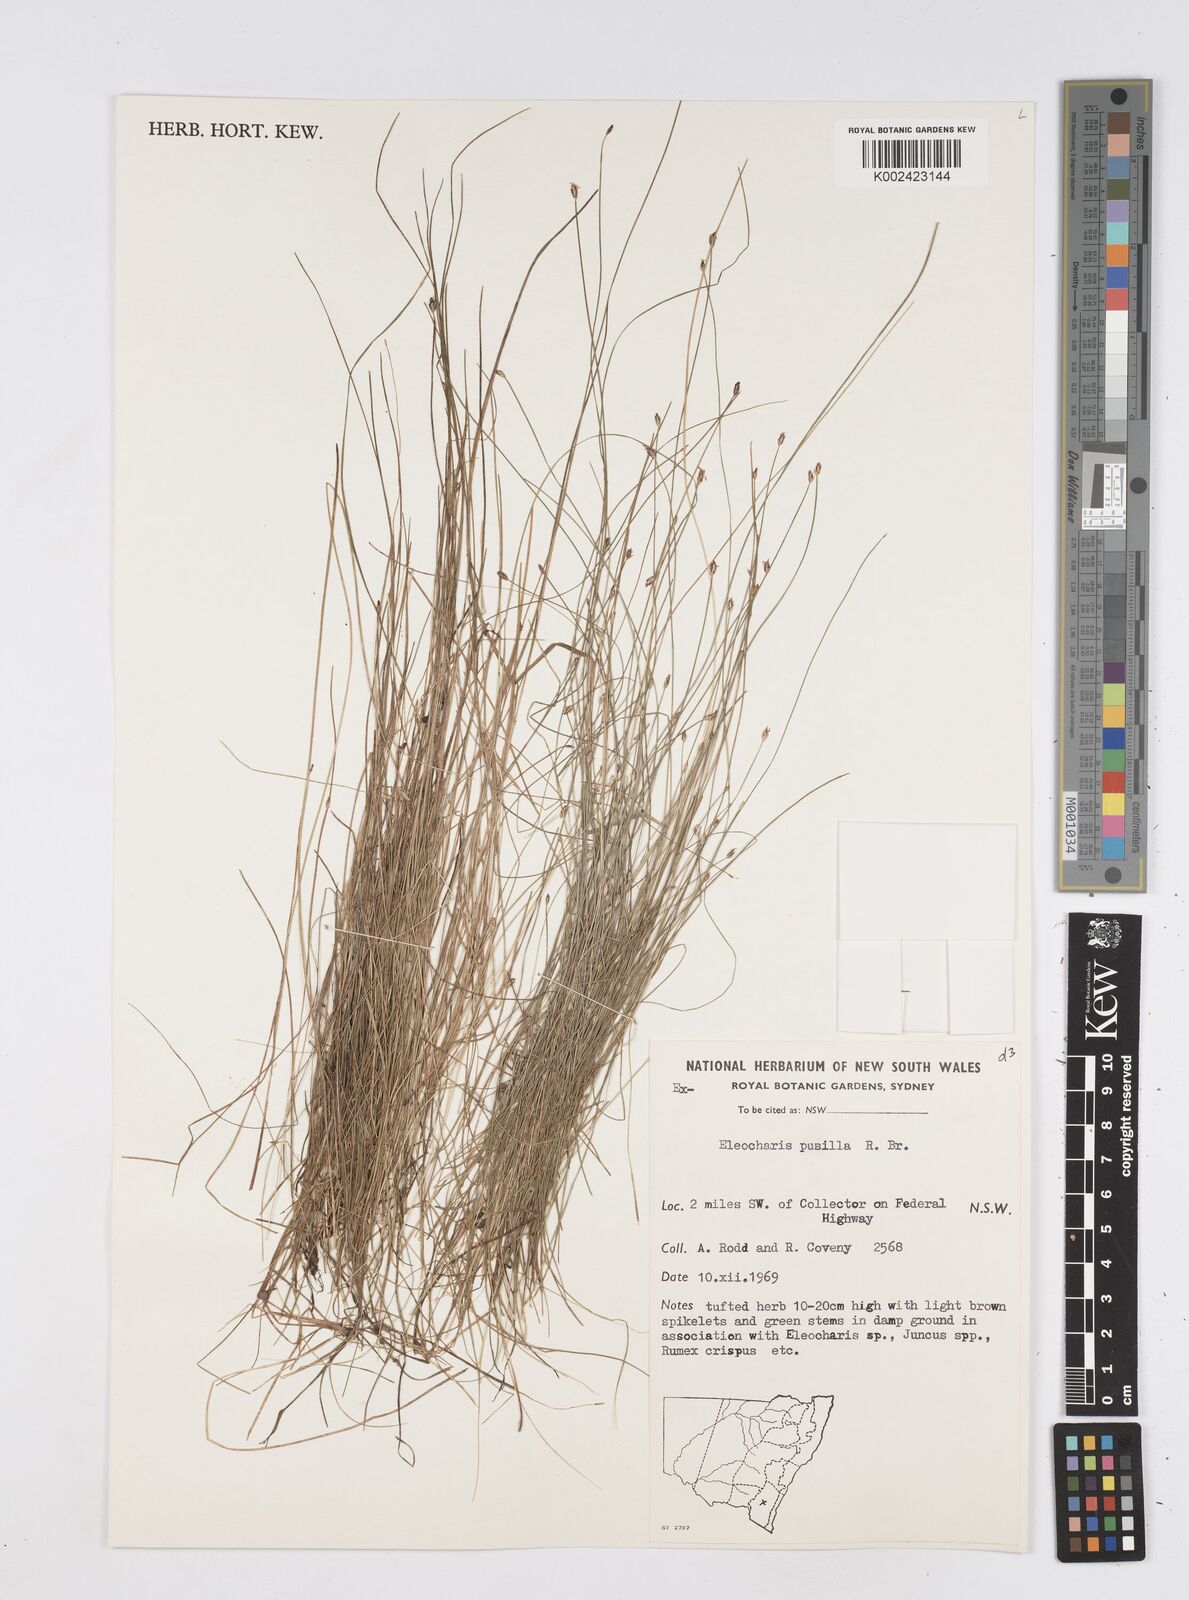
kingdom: Plantae
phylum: Tracheophyta
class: Liliopsida
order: Poales
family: Cyperaceae
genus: Eleocharis
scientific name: Eleocharis pusilla
